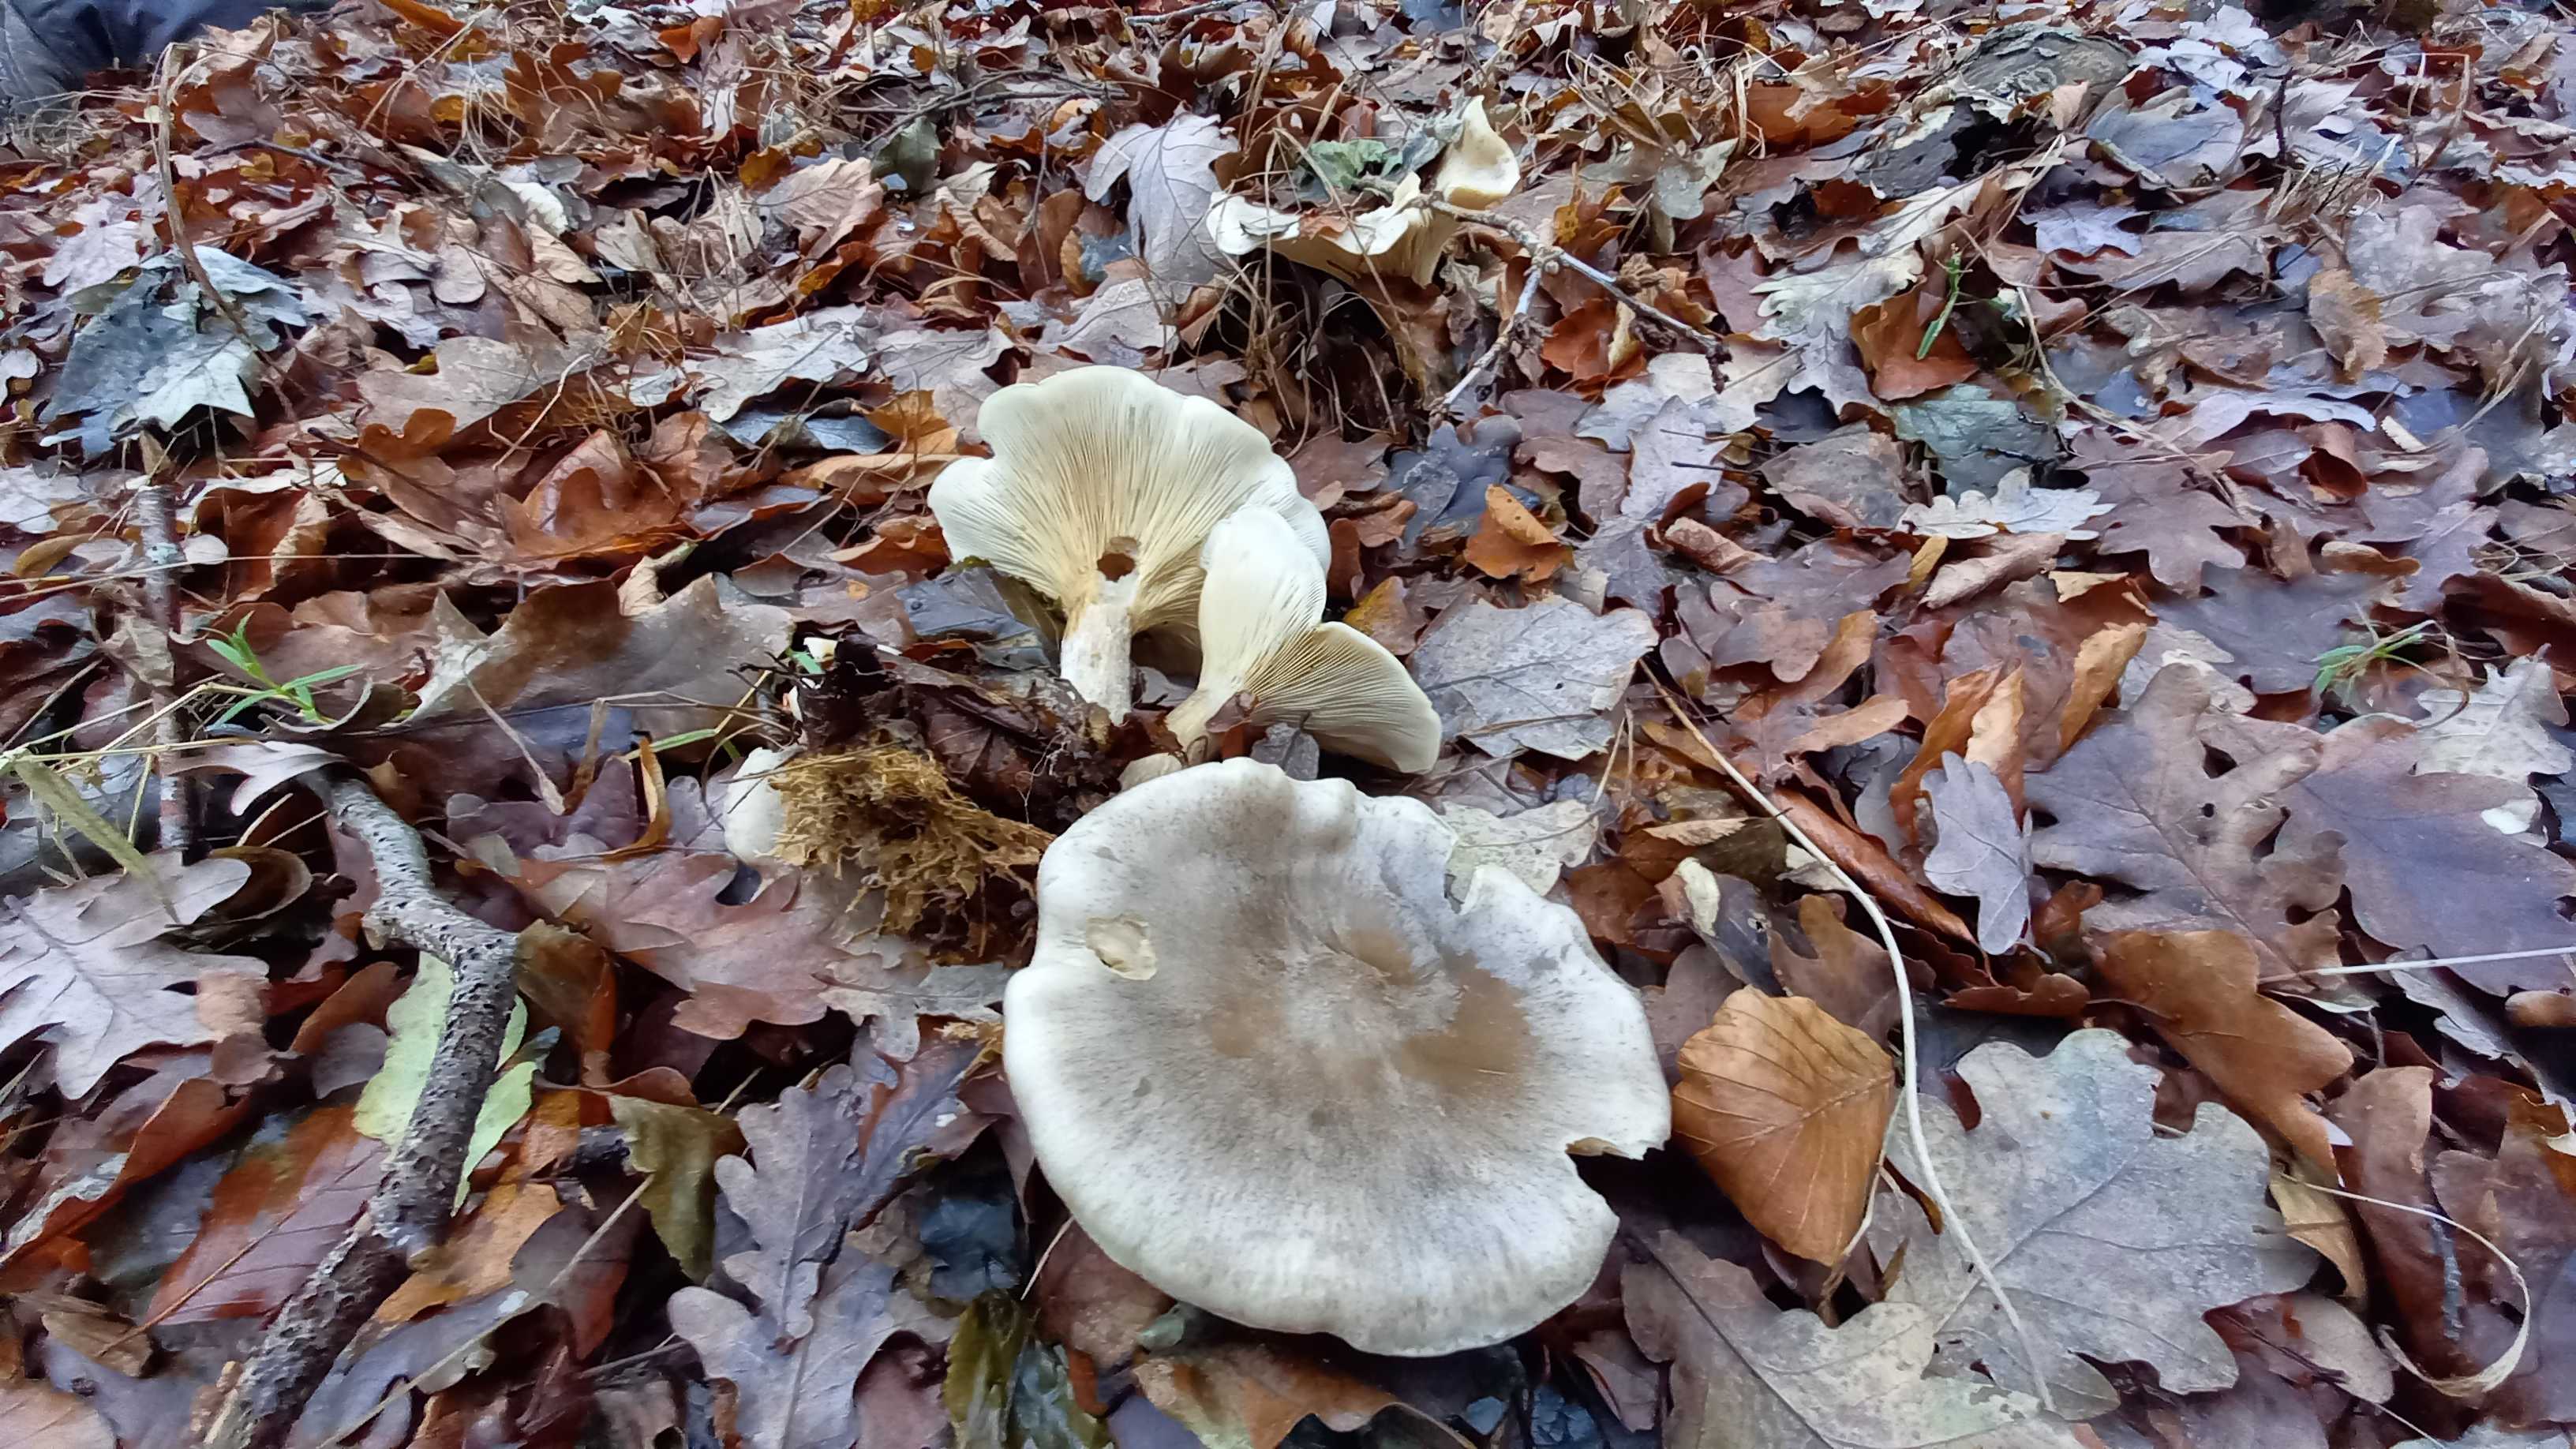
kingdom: Fungi
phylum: Basidiomycota
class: Agaricomycetes
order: Agaricales
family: Tricholomataceae
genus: Clitocybe
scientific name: Clitocybe nebularis
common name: tåge-tragthat
